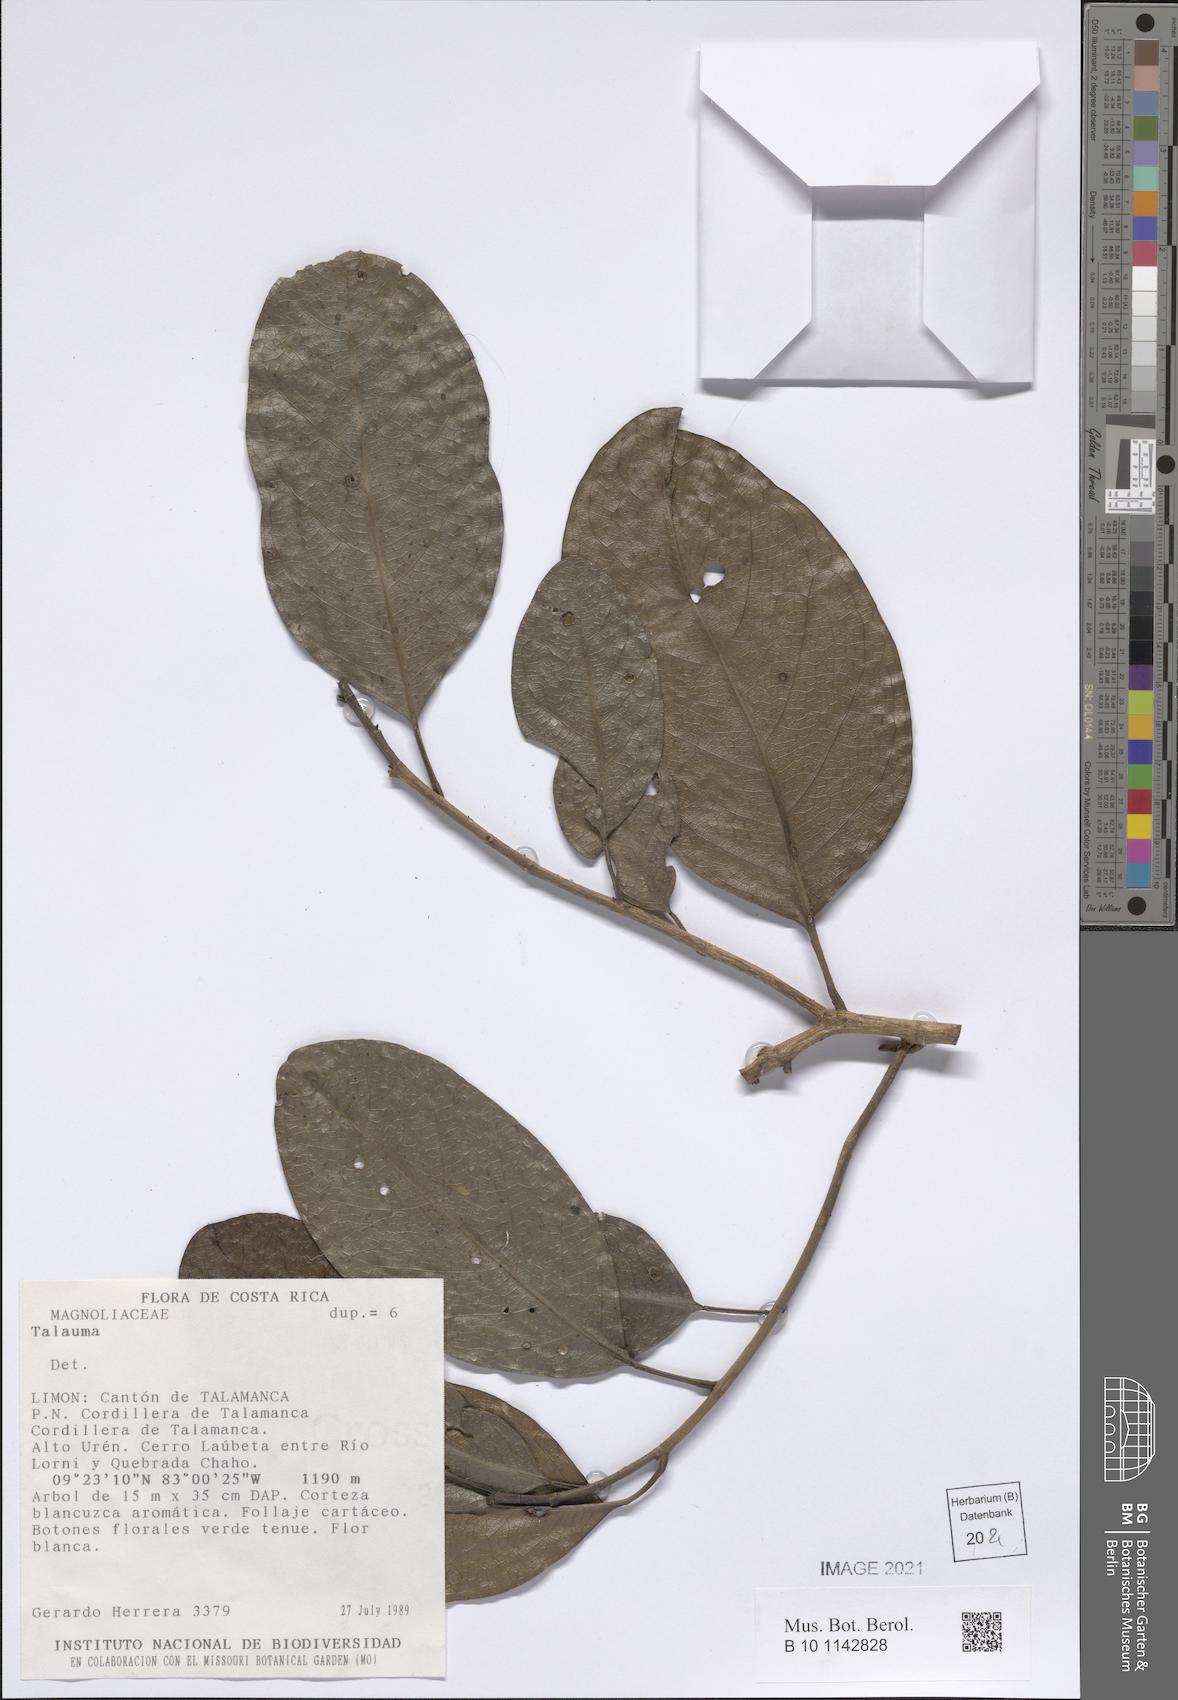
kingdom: Plantae
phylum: Tracheophyta
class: Magnoliopsida
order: Magnoliales
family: Magnoliaceae
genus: Magnolia
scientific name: Magnolia Talauma spec
